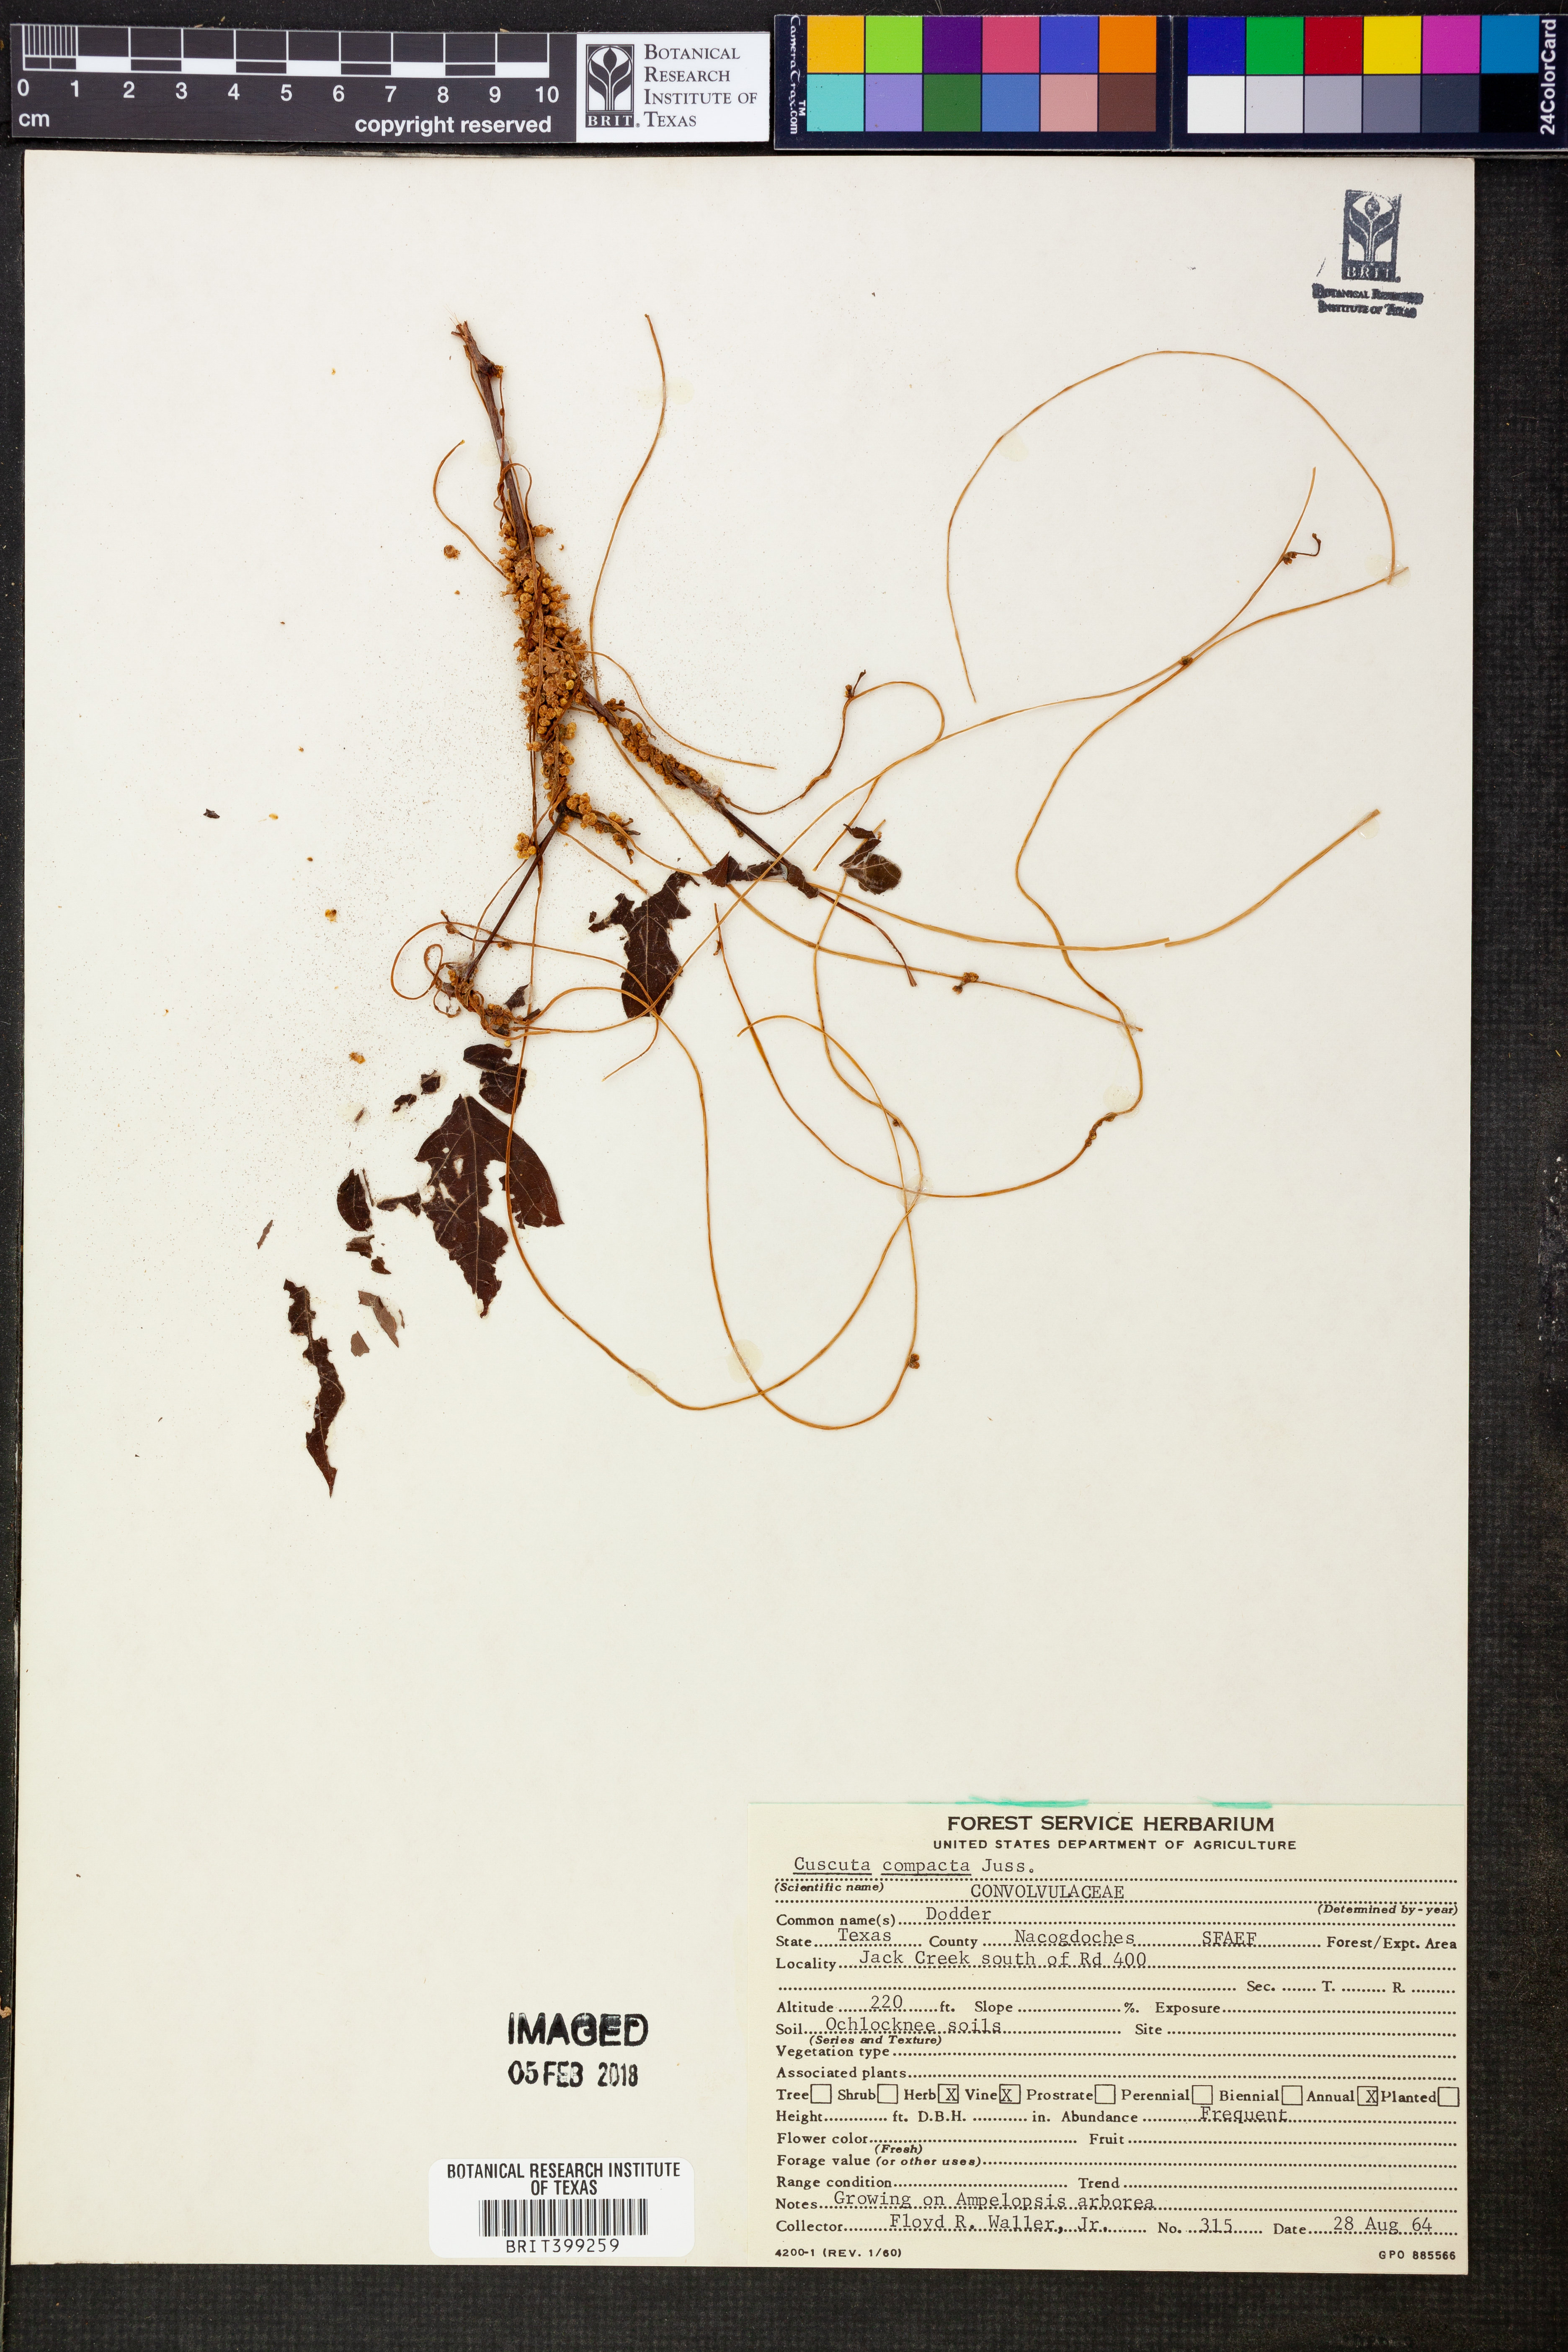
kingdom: Plantae
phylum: Tracheophyta
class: Magnoliopsida
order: Solanales
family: Convolvulaceae
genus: Cuscuta
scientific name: Cuscuta compacta
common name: Compact dodder
